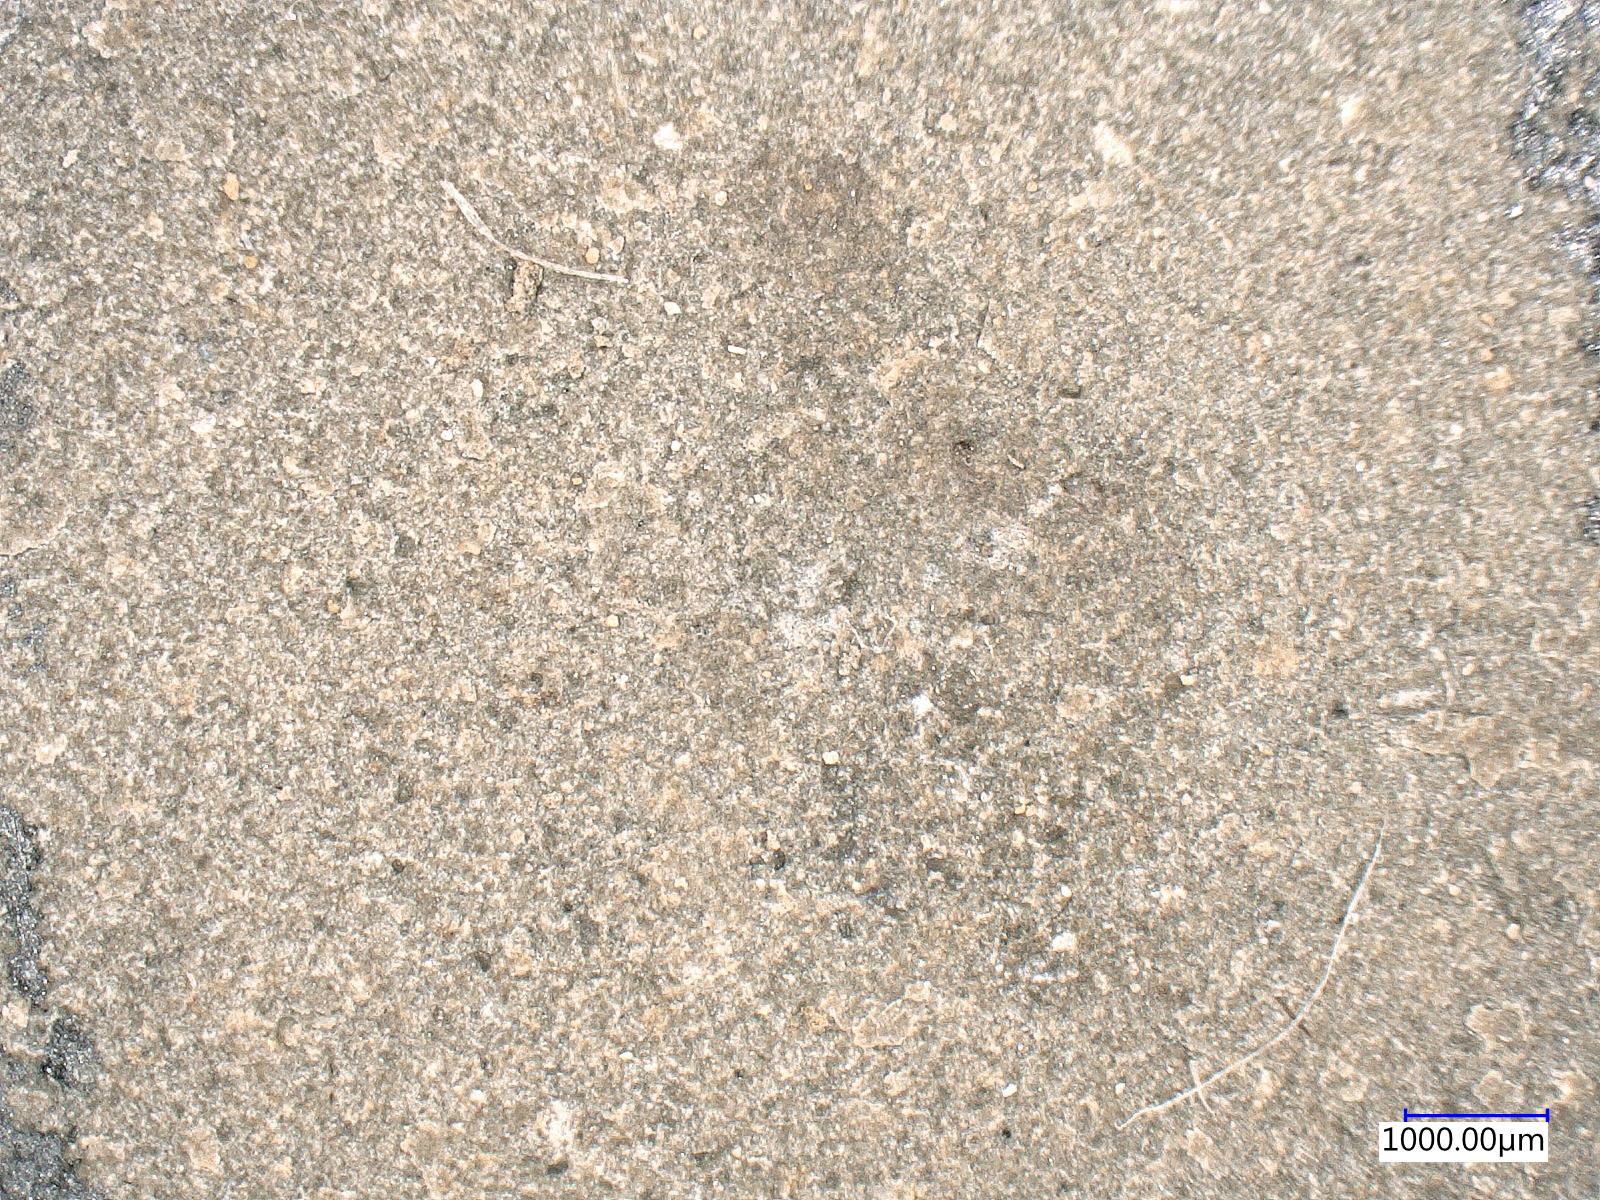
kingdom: Animalia
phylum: Arthropoda
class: Insecta
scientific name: Insecta
